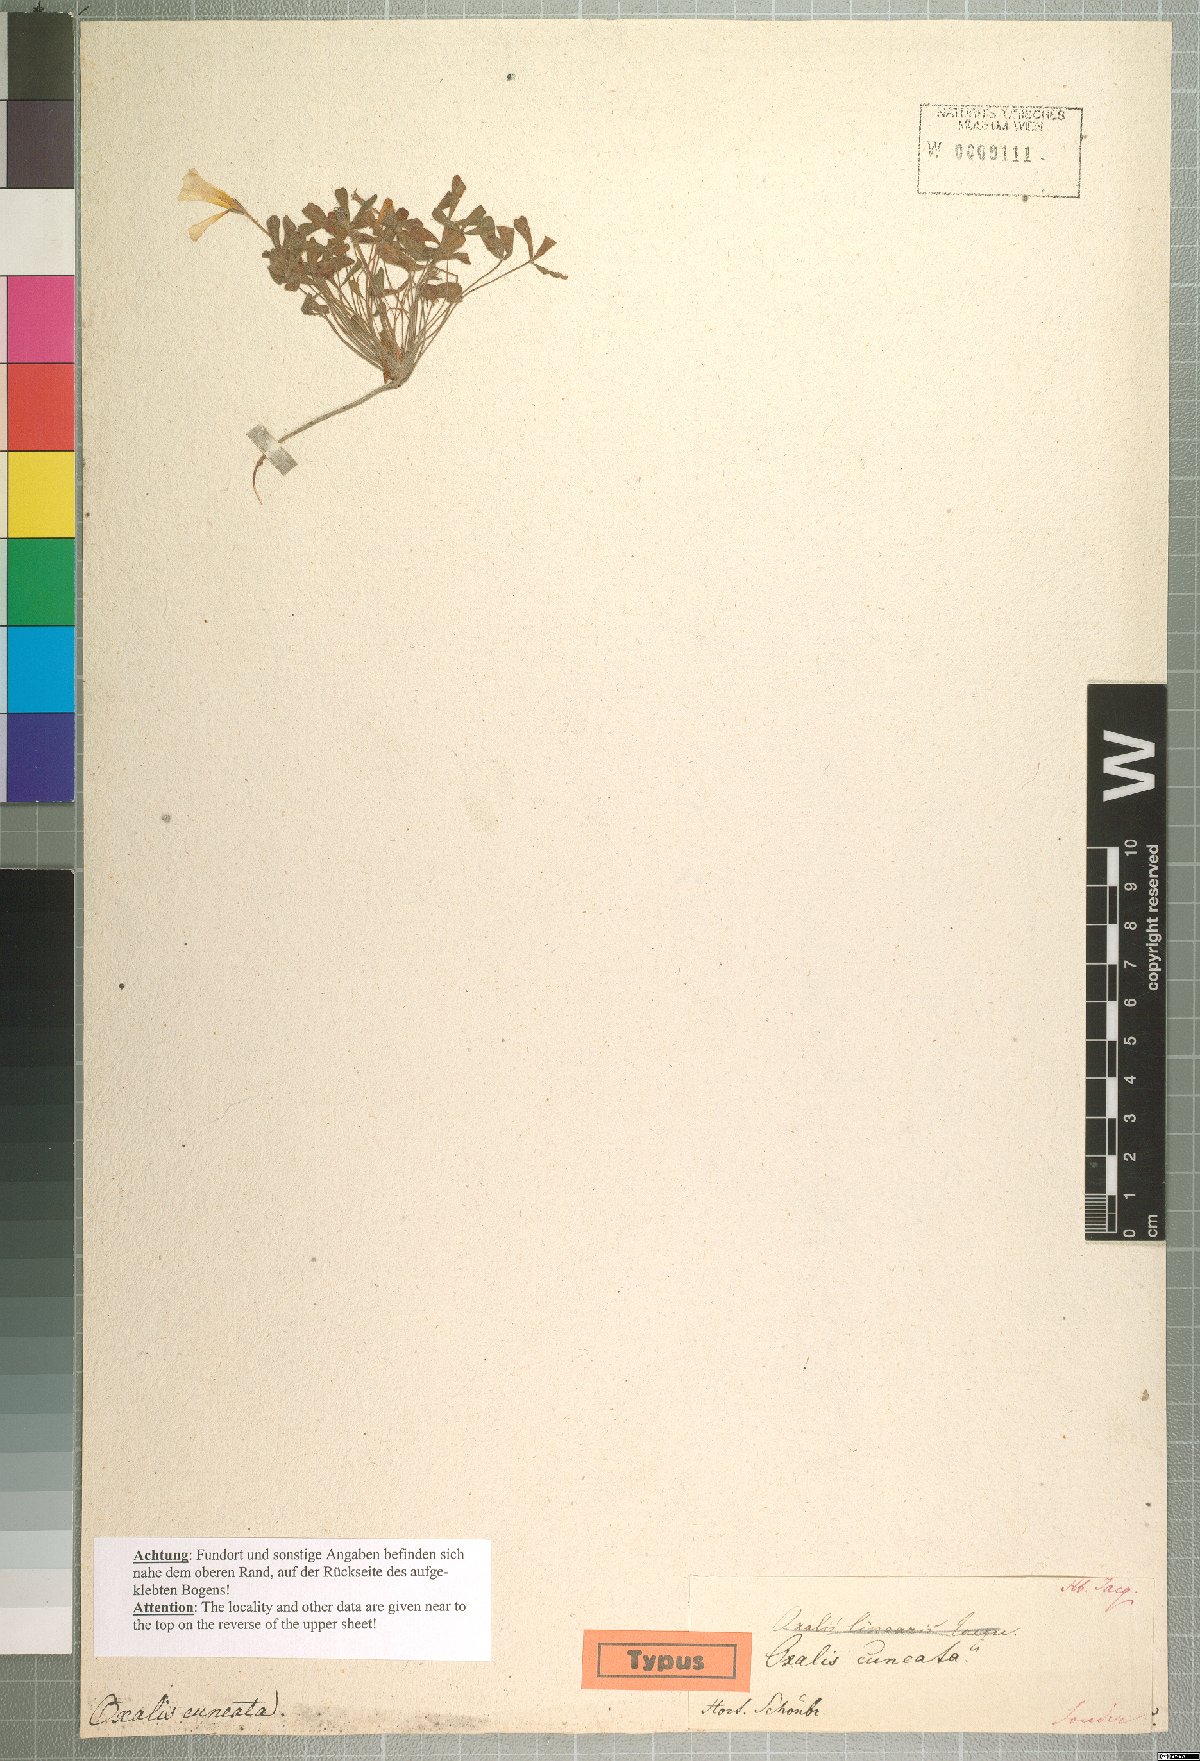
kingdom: Plantae
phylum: Tracheophyta
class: Magnoliopsida
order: Oxalidales
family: Oxalidaceae
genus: Oxalis
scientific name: Oxalis cuneata
